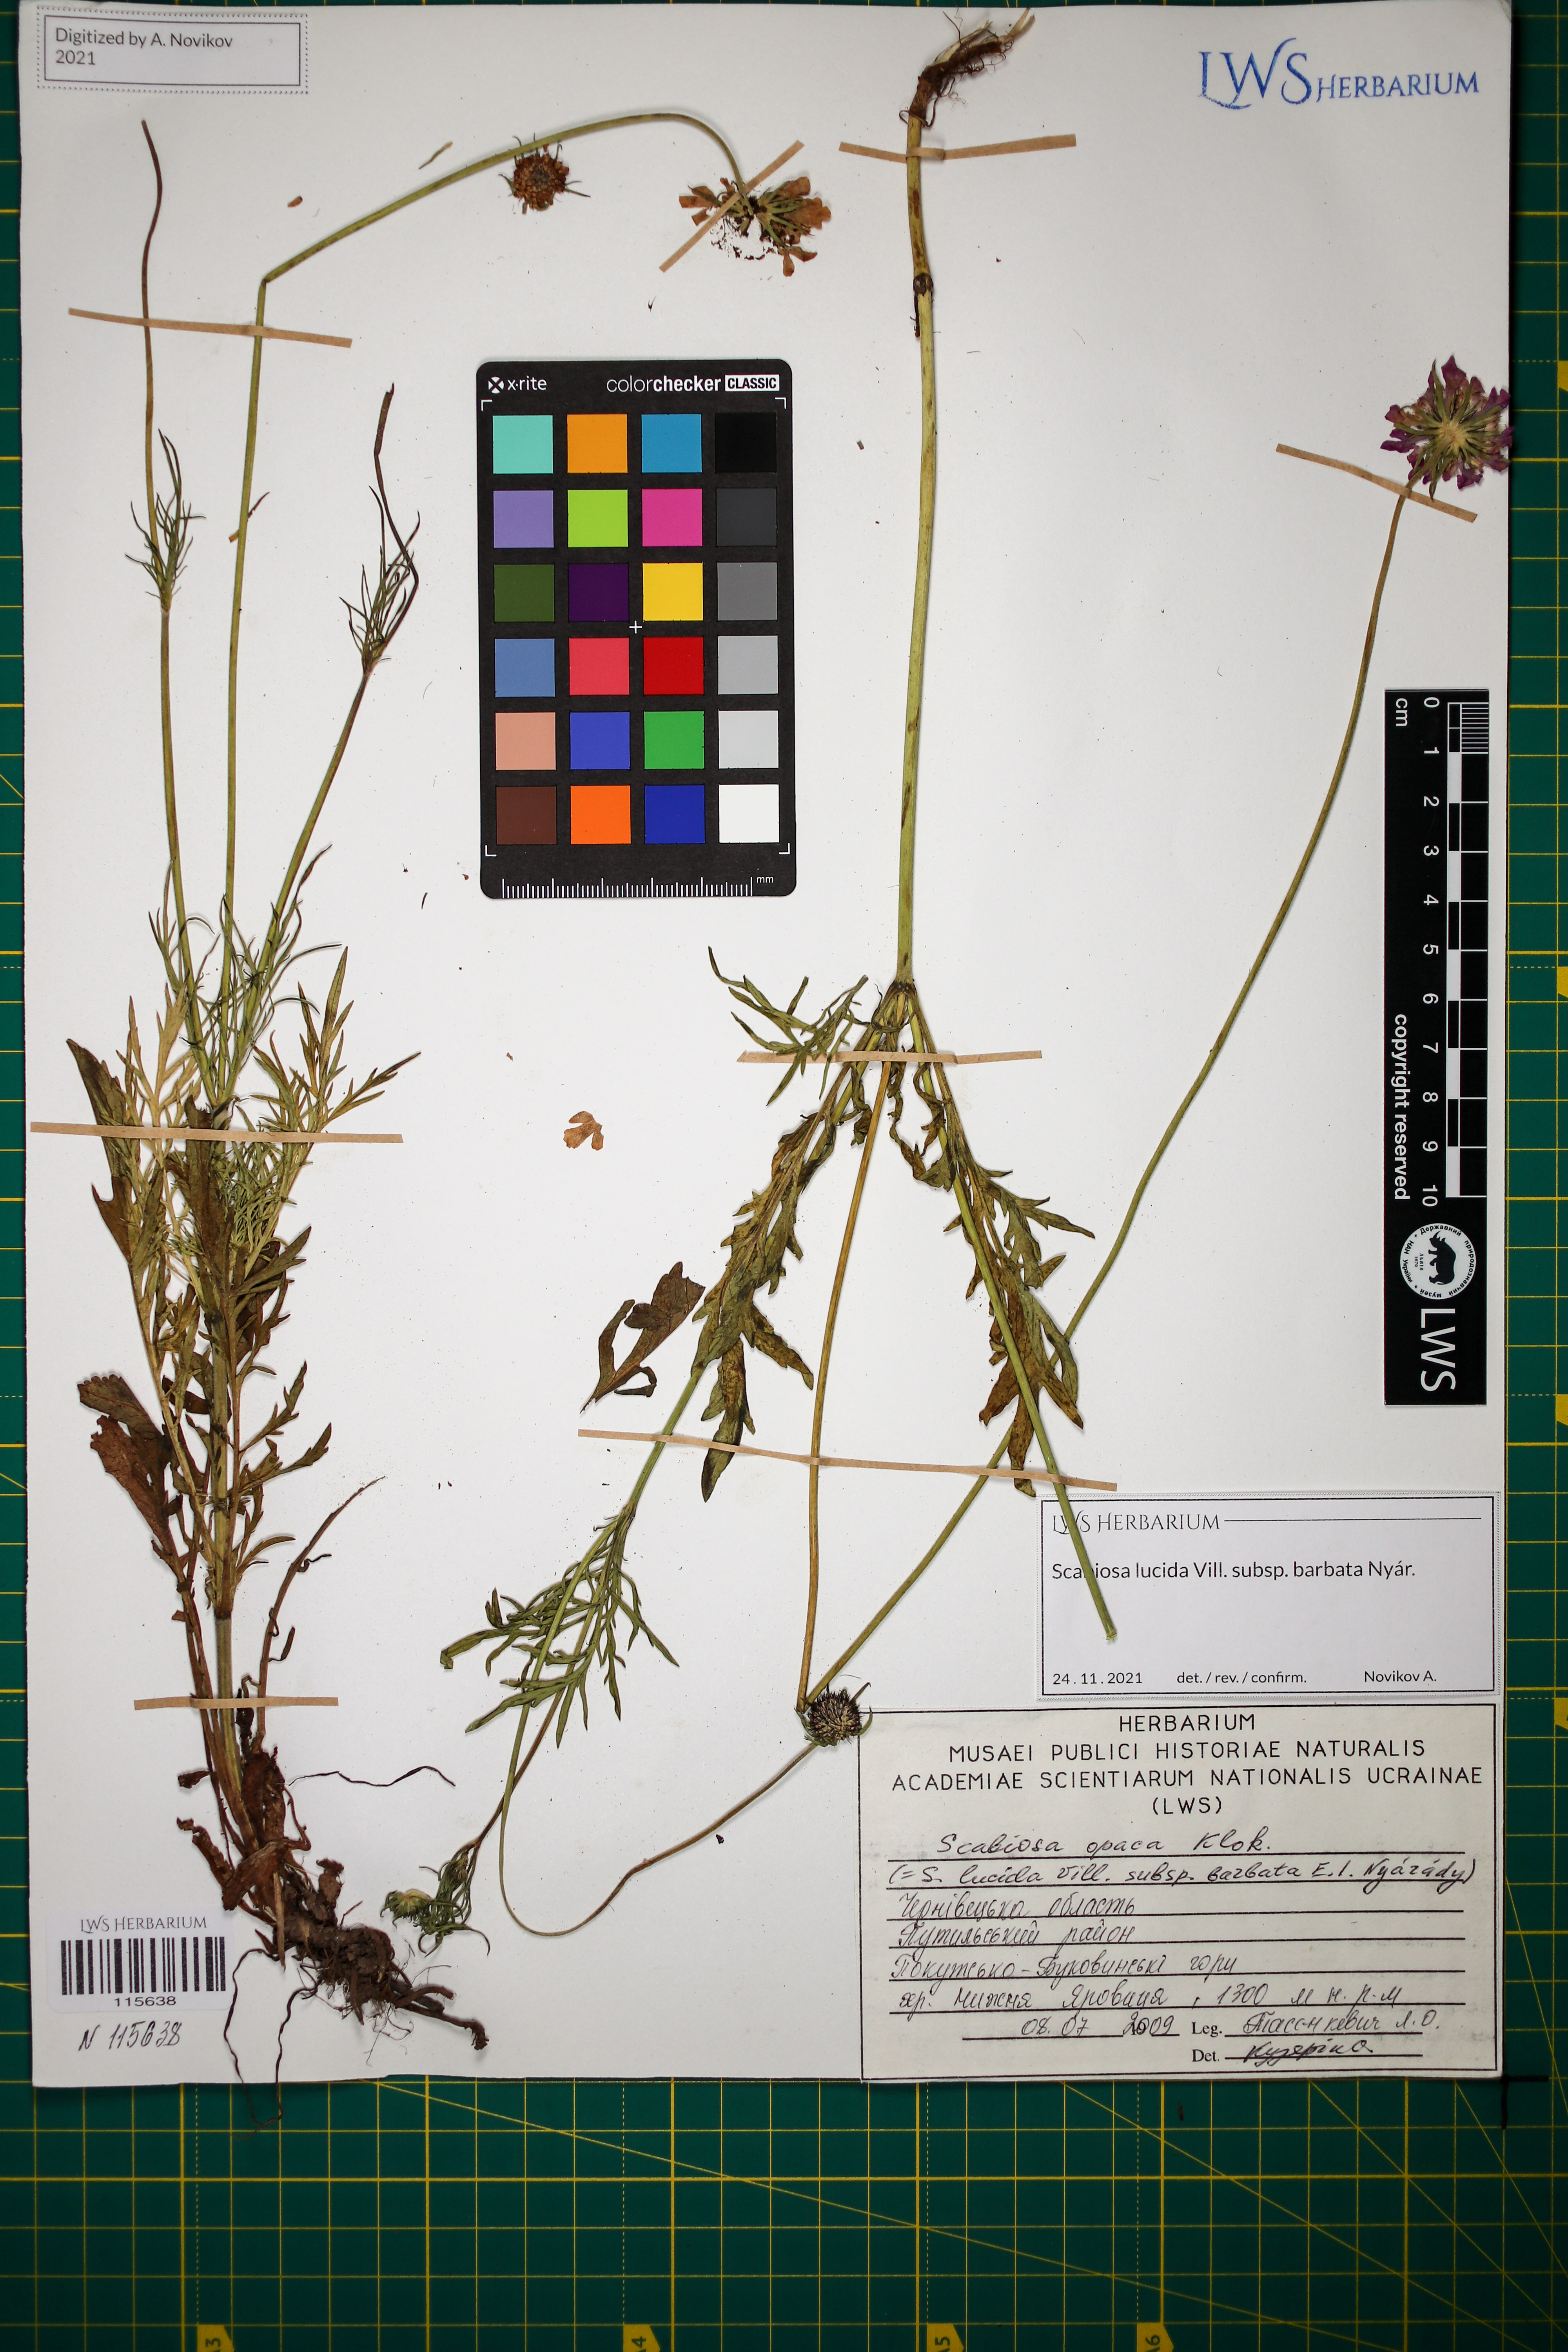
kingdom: Plantae
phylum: Tracheophyta
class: Magnoliopsida
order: Dipsacales
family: Caprifoliaceae
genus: Scabiosa
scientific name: Scabiosa lucida
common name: Shining scabious
